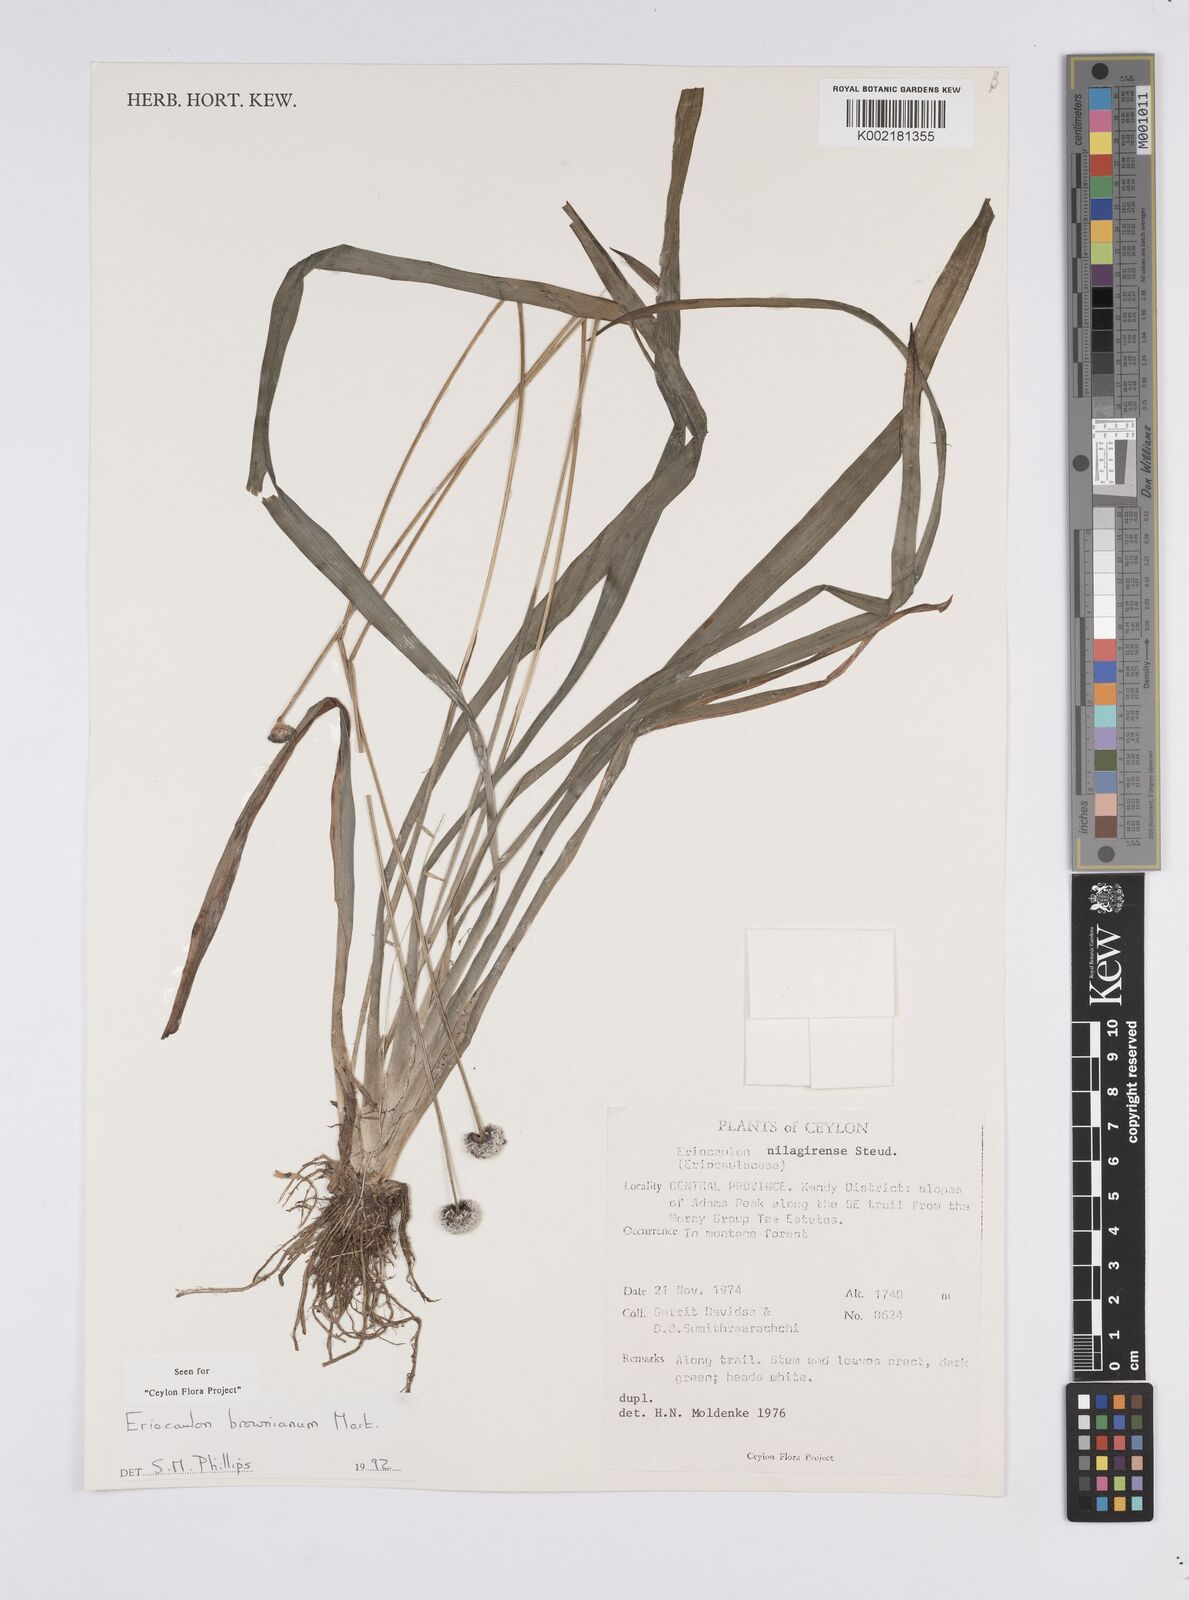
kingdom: Plantae
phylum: Tracheophyta
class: Liliopsida
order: Poales
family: Eriocaulaceae
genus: Eriocaulon
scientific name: Eriocaulon brownianum
